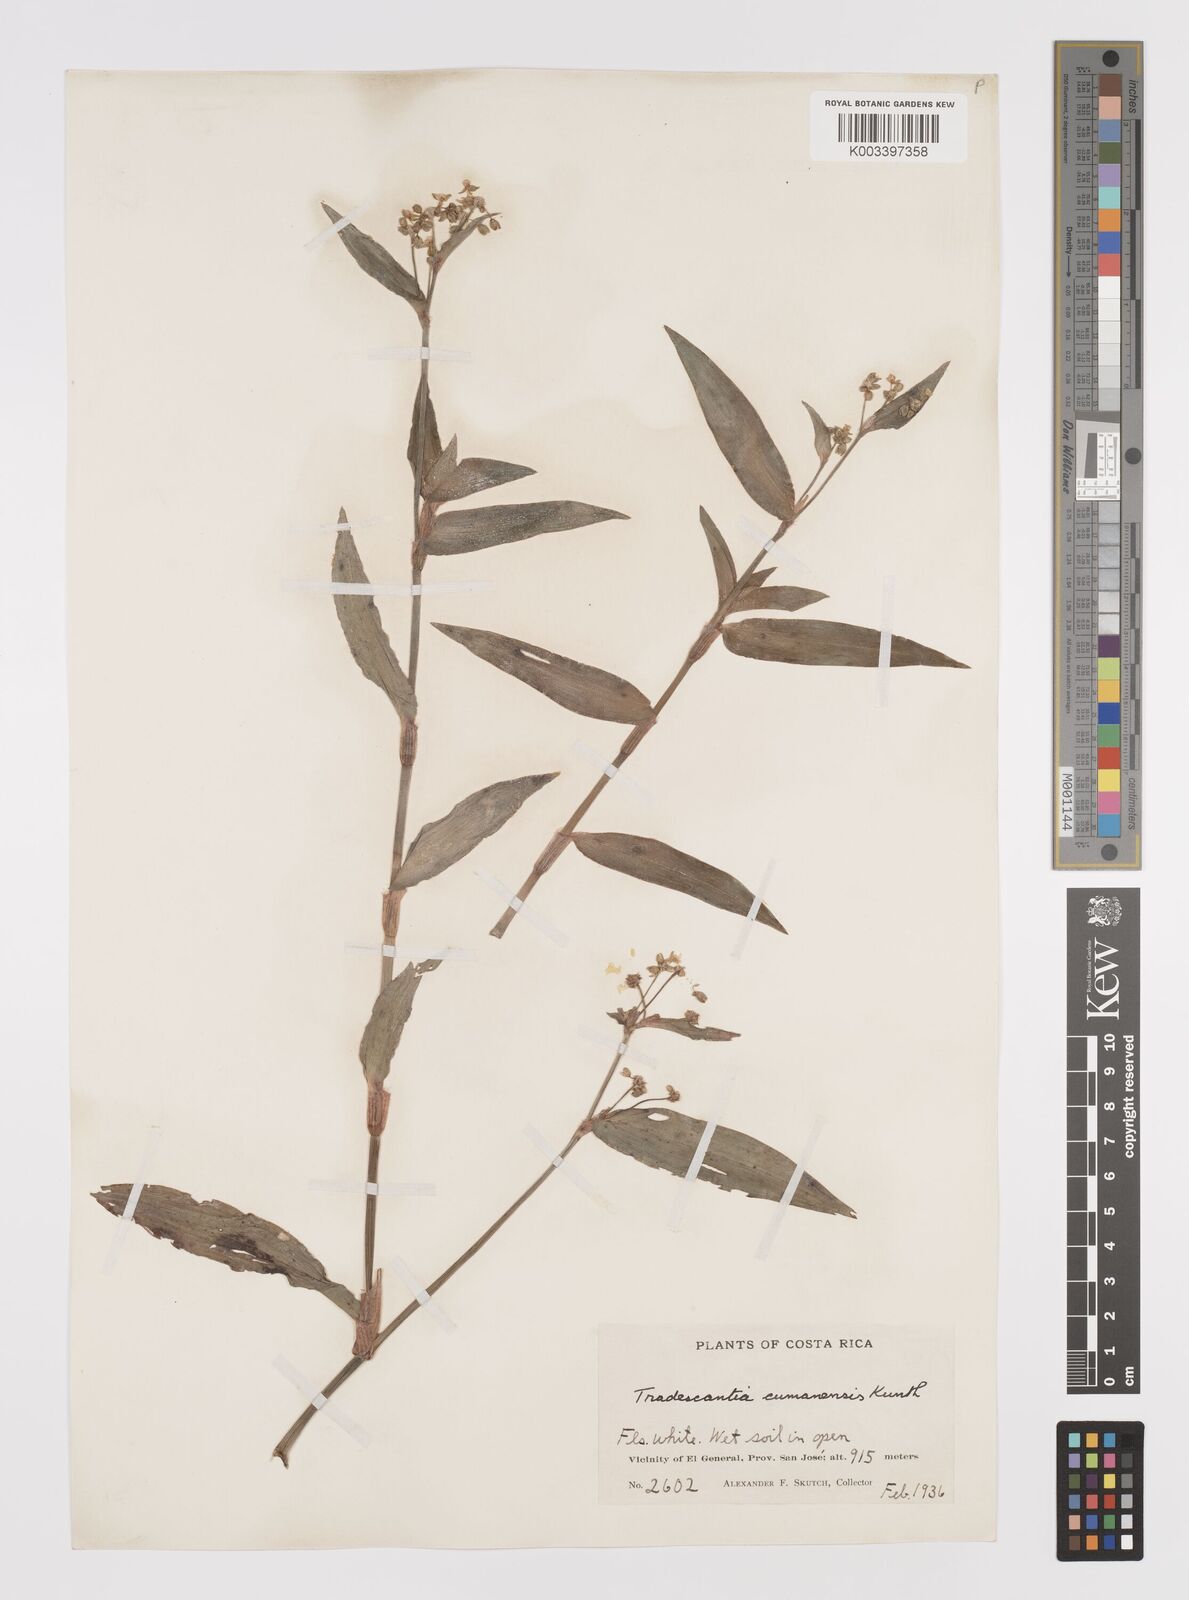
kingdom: Plantae
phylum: Tracheophyta
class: Liliopsida
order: Commelinales
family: Commelinaceae
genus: Callisia
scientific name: Callisia serrulata
